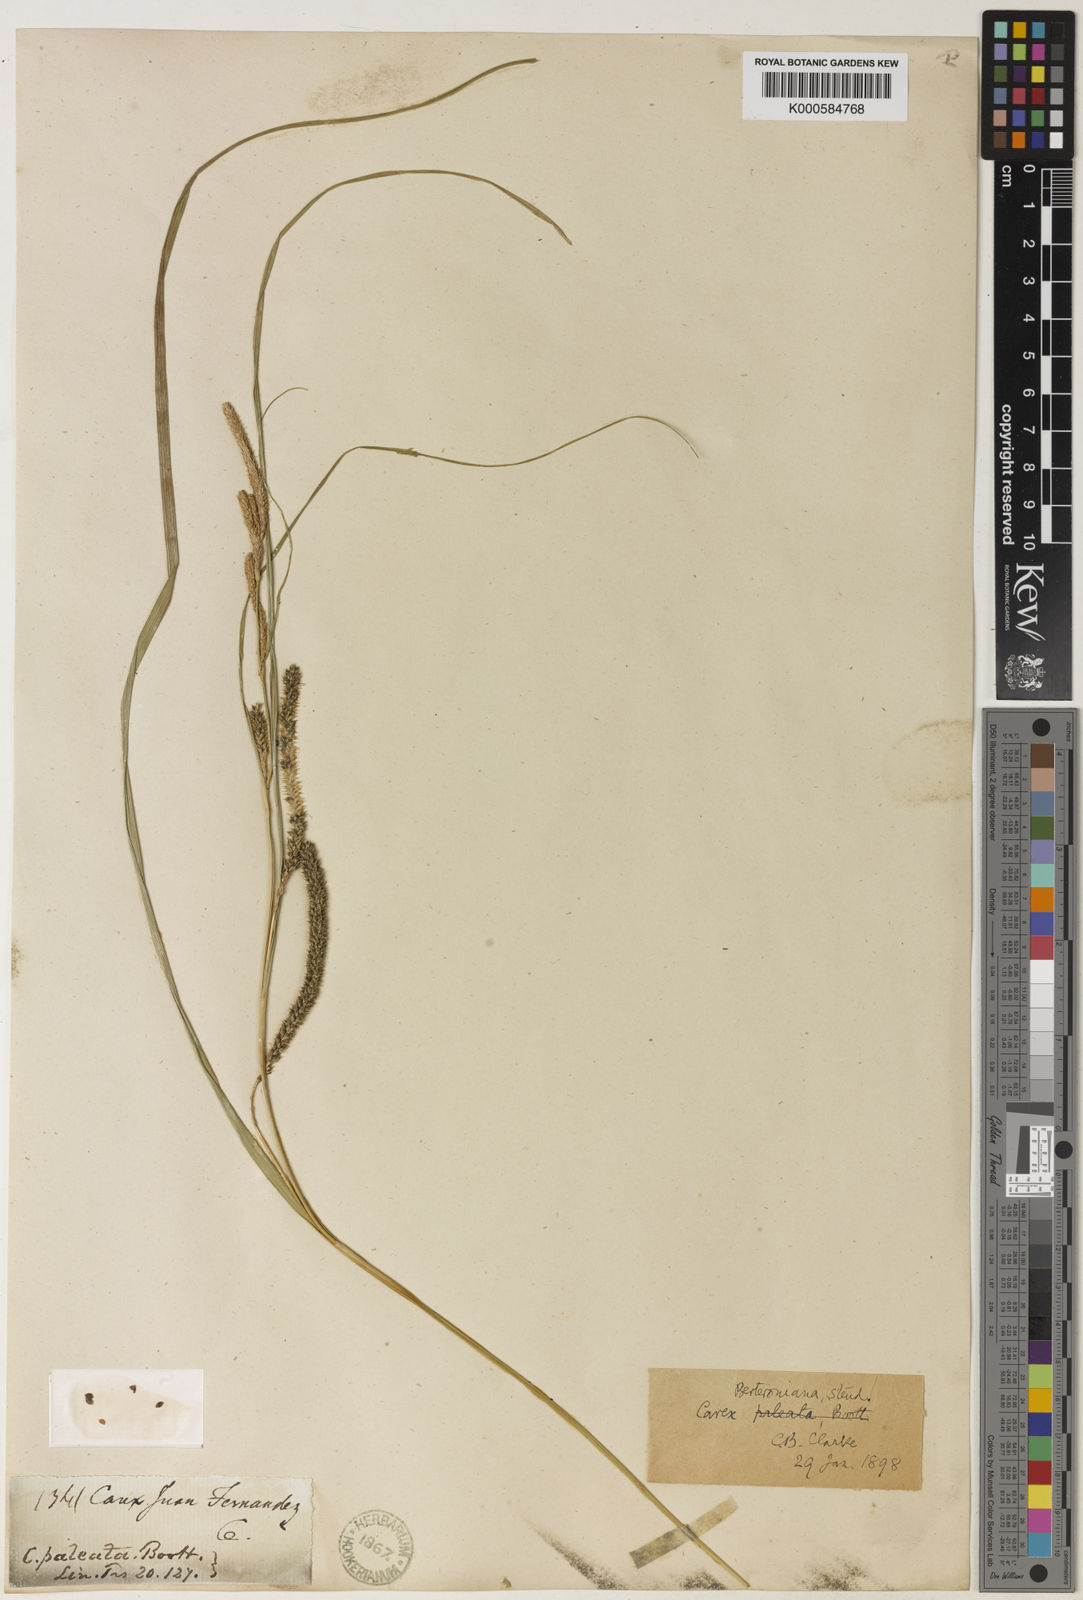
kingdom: Plantae
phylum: Tracheophyta
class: Liliopsida
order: Poales
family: Cyperaceae
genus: Carex
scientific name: Carex berteroniana
